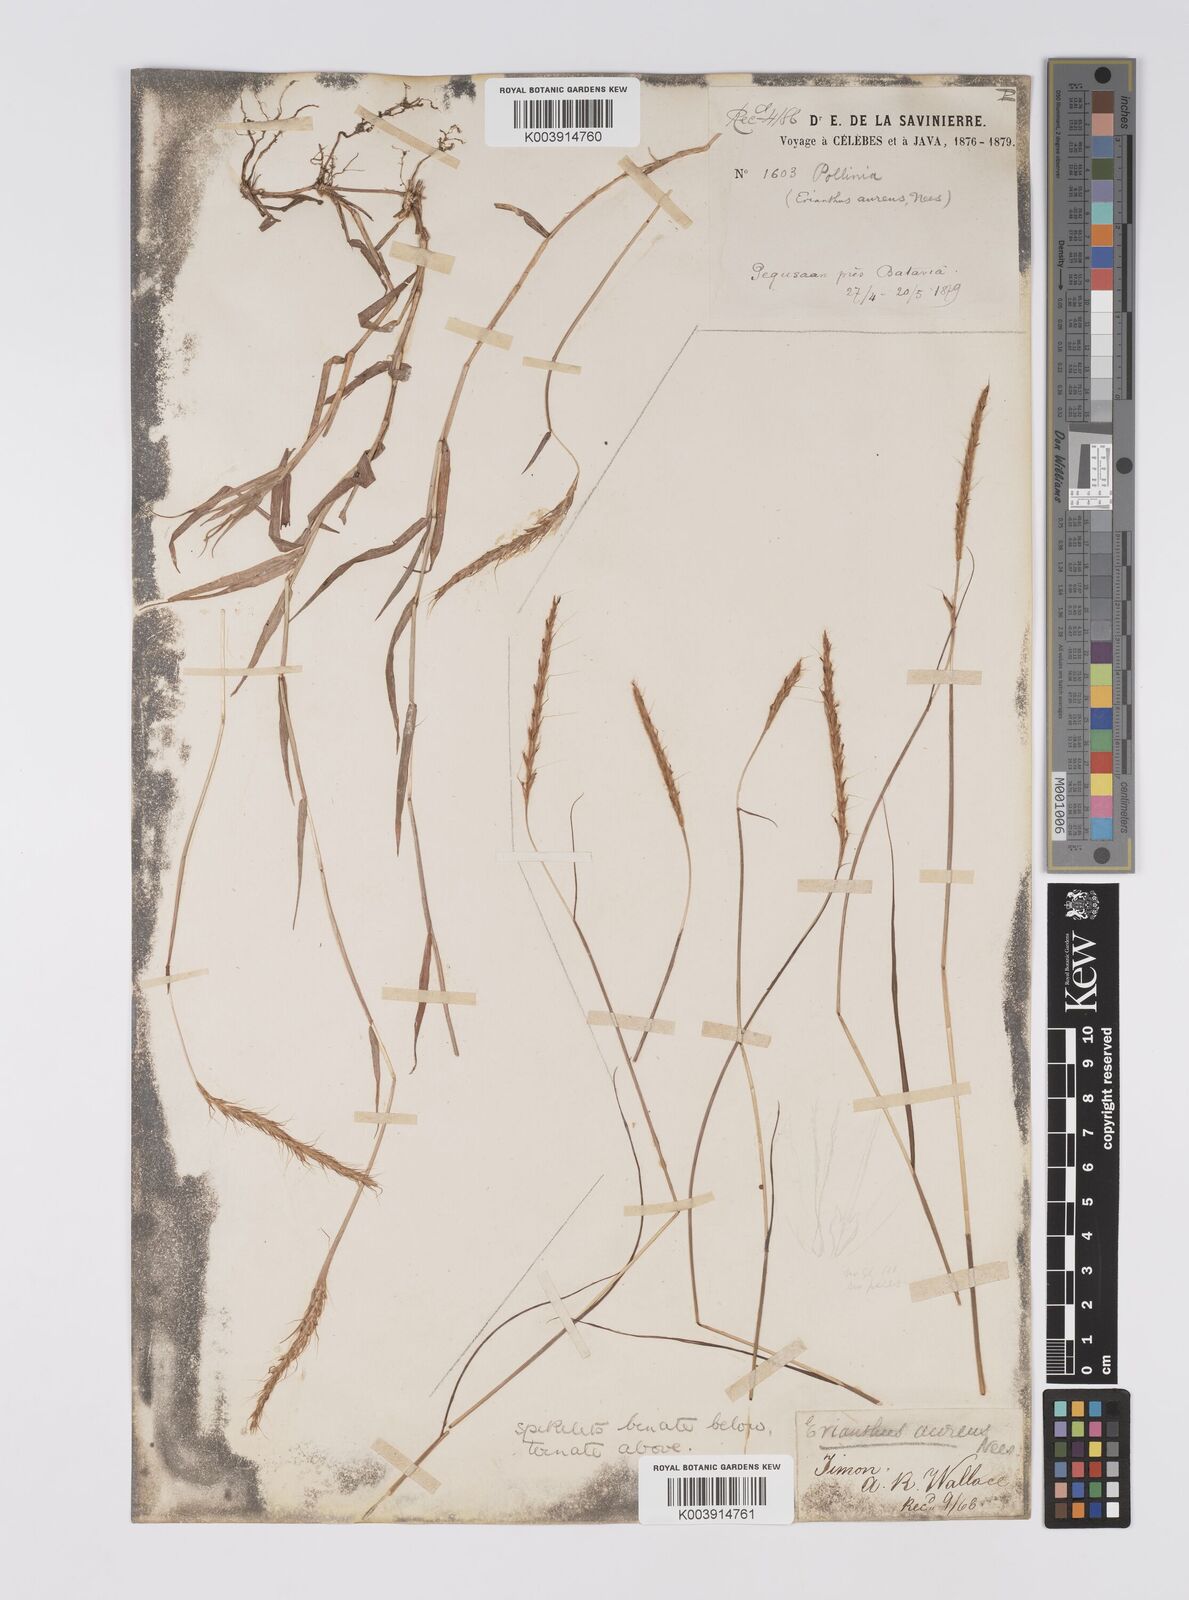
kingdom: Plantae
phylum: Tracheophyta
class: Liliopsida
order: Poales
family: Poaceae
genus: Polytrias
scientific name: Polytrias
